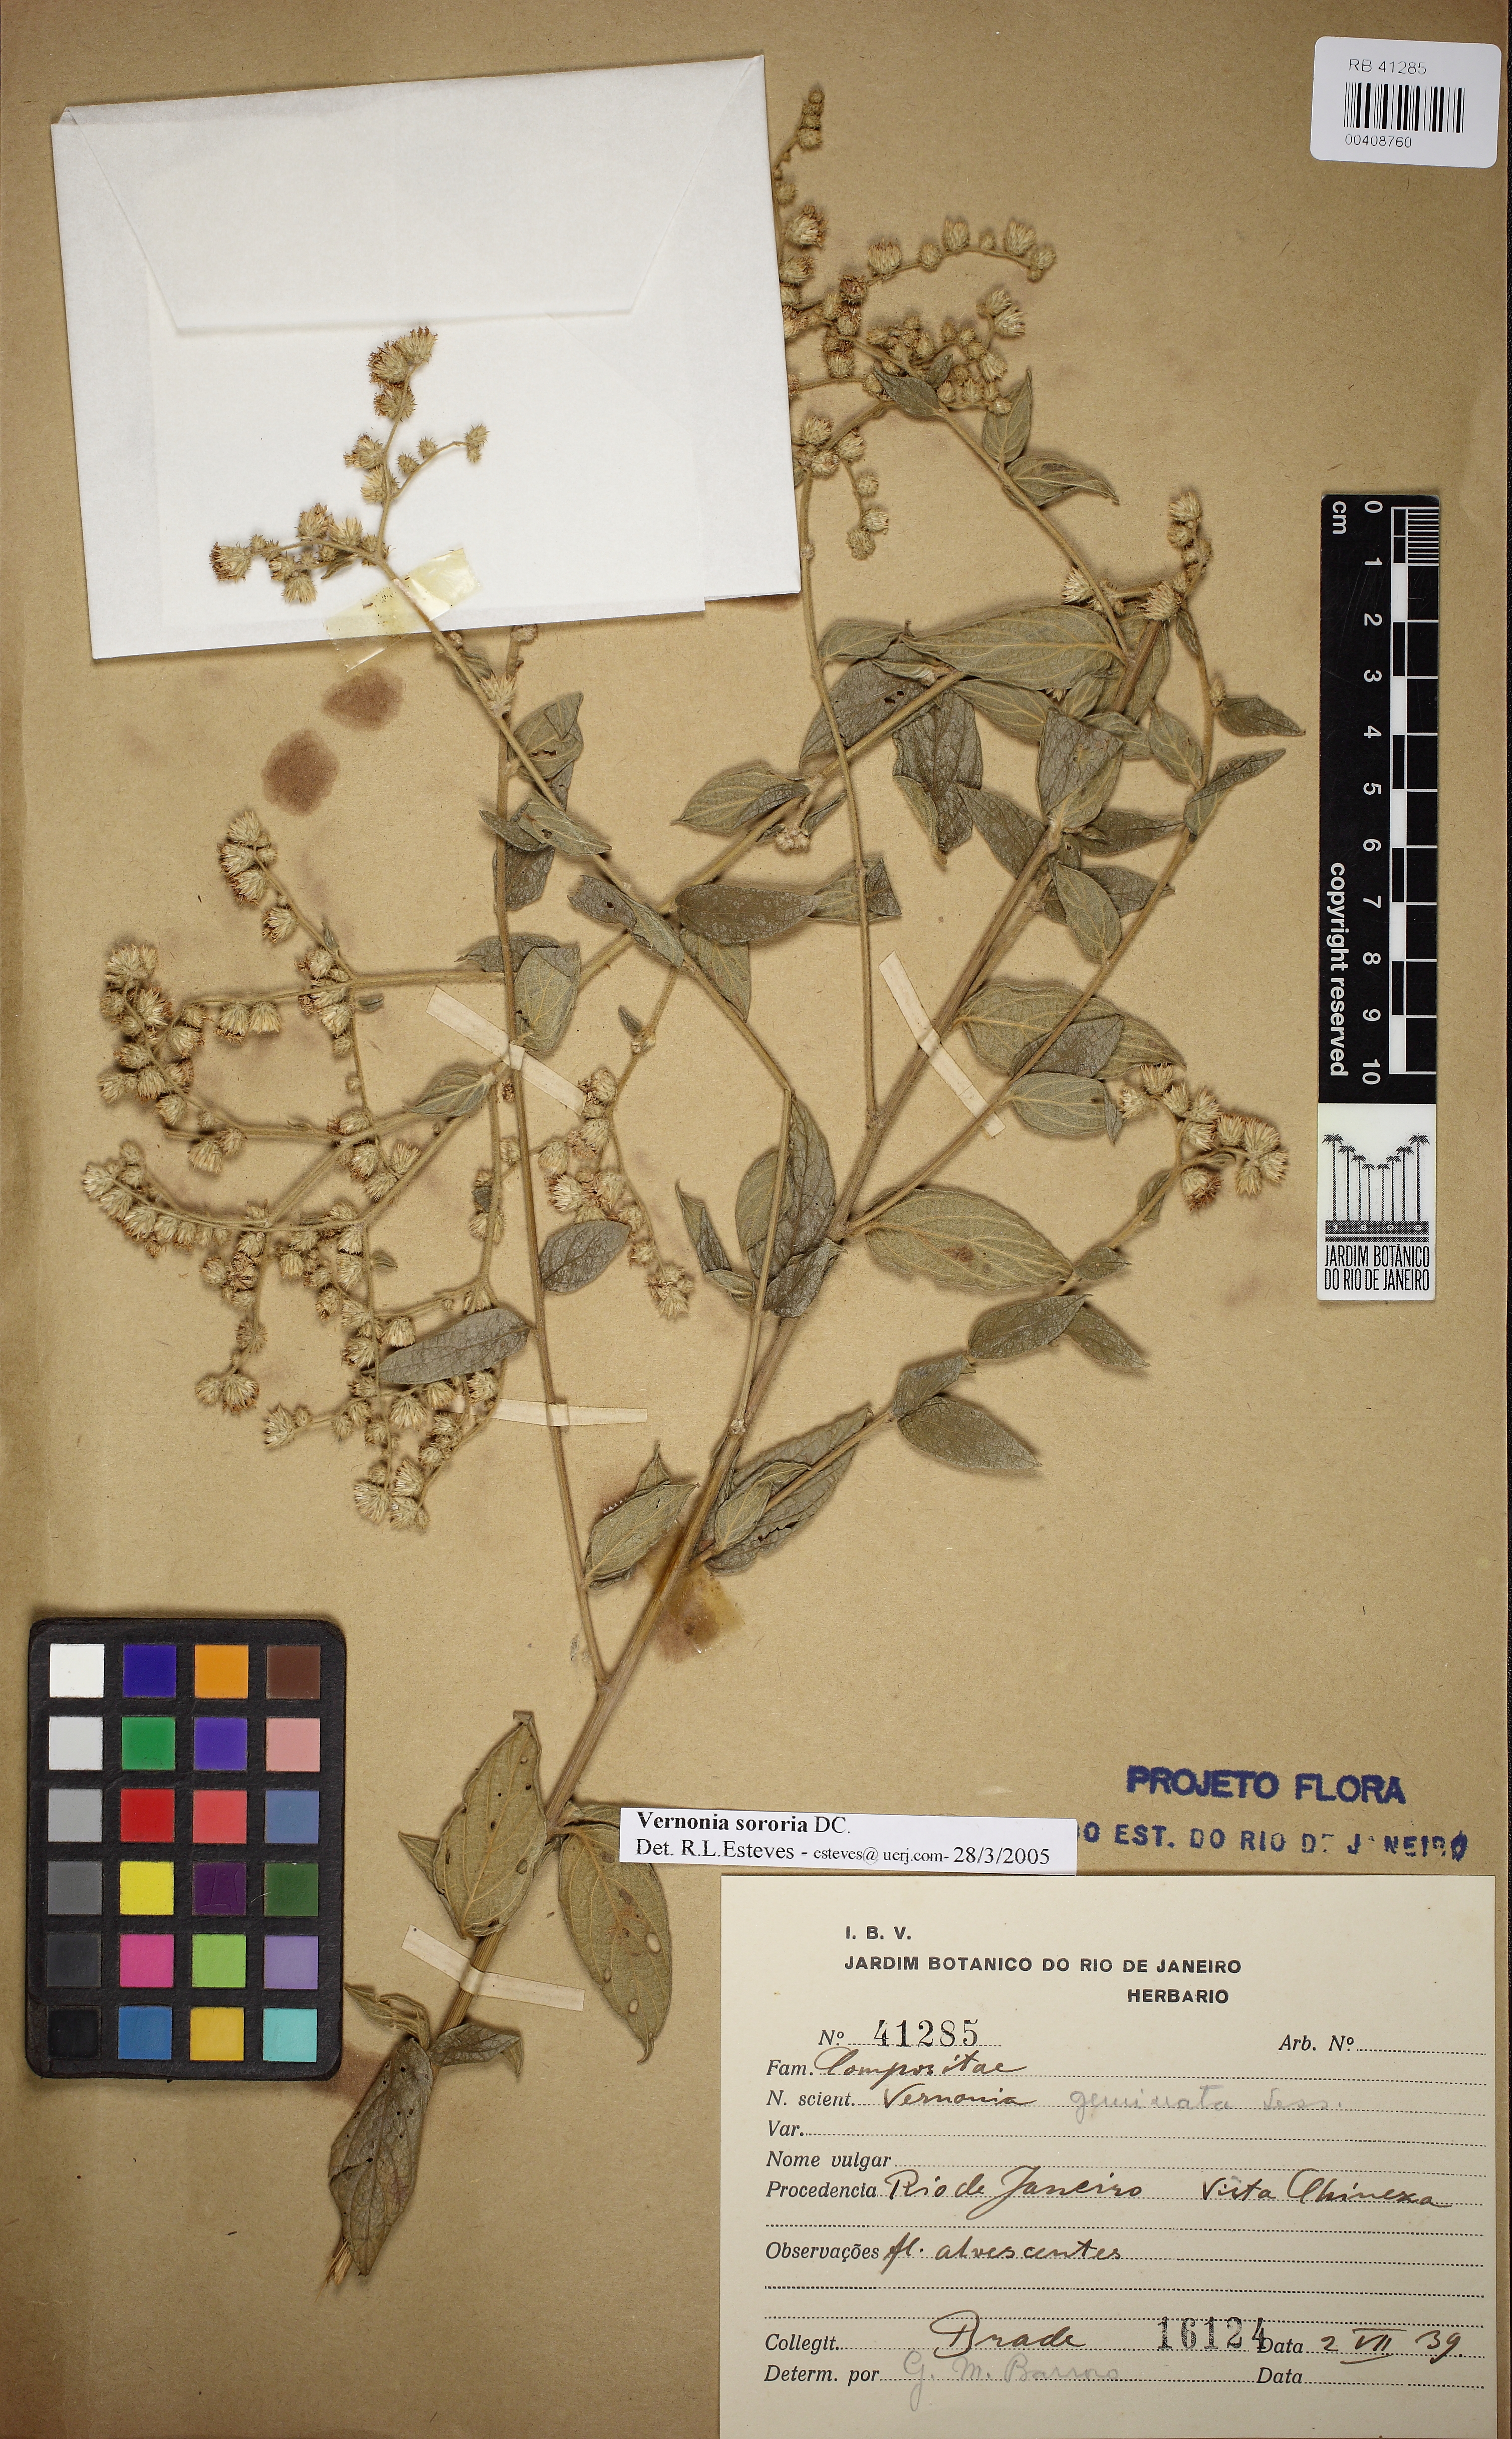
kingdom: Plantae
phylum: Tracheophyta
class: Magnoliopsida
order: Asterales
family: Asteraceae
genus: Lepidaploa
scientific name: Lepidaploa sororia
